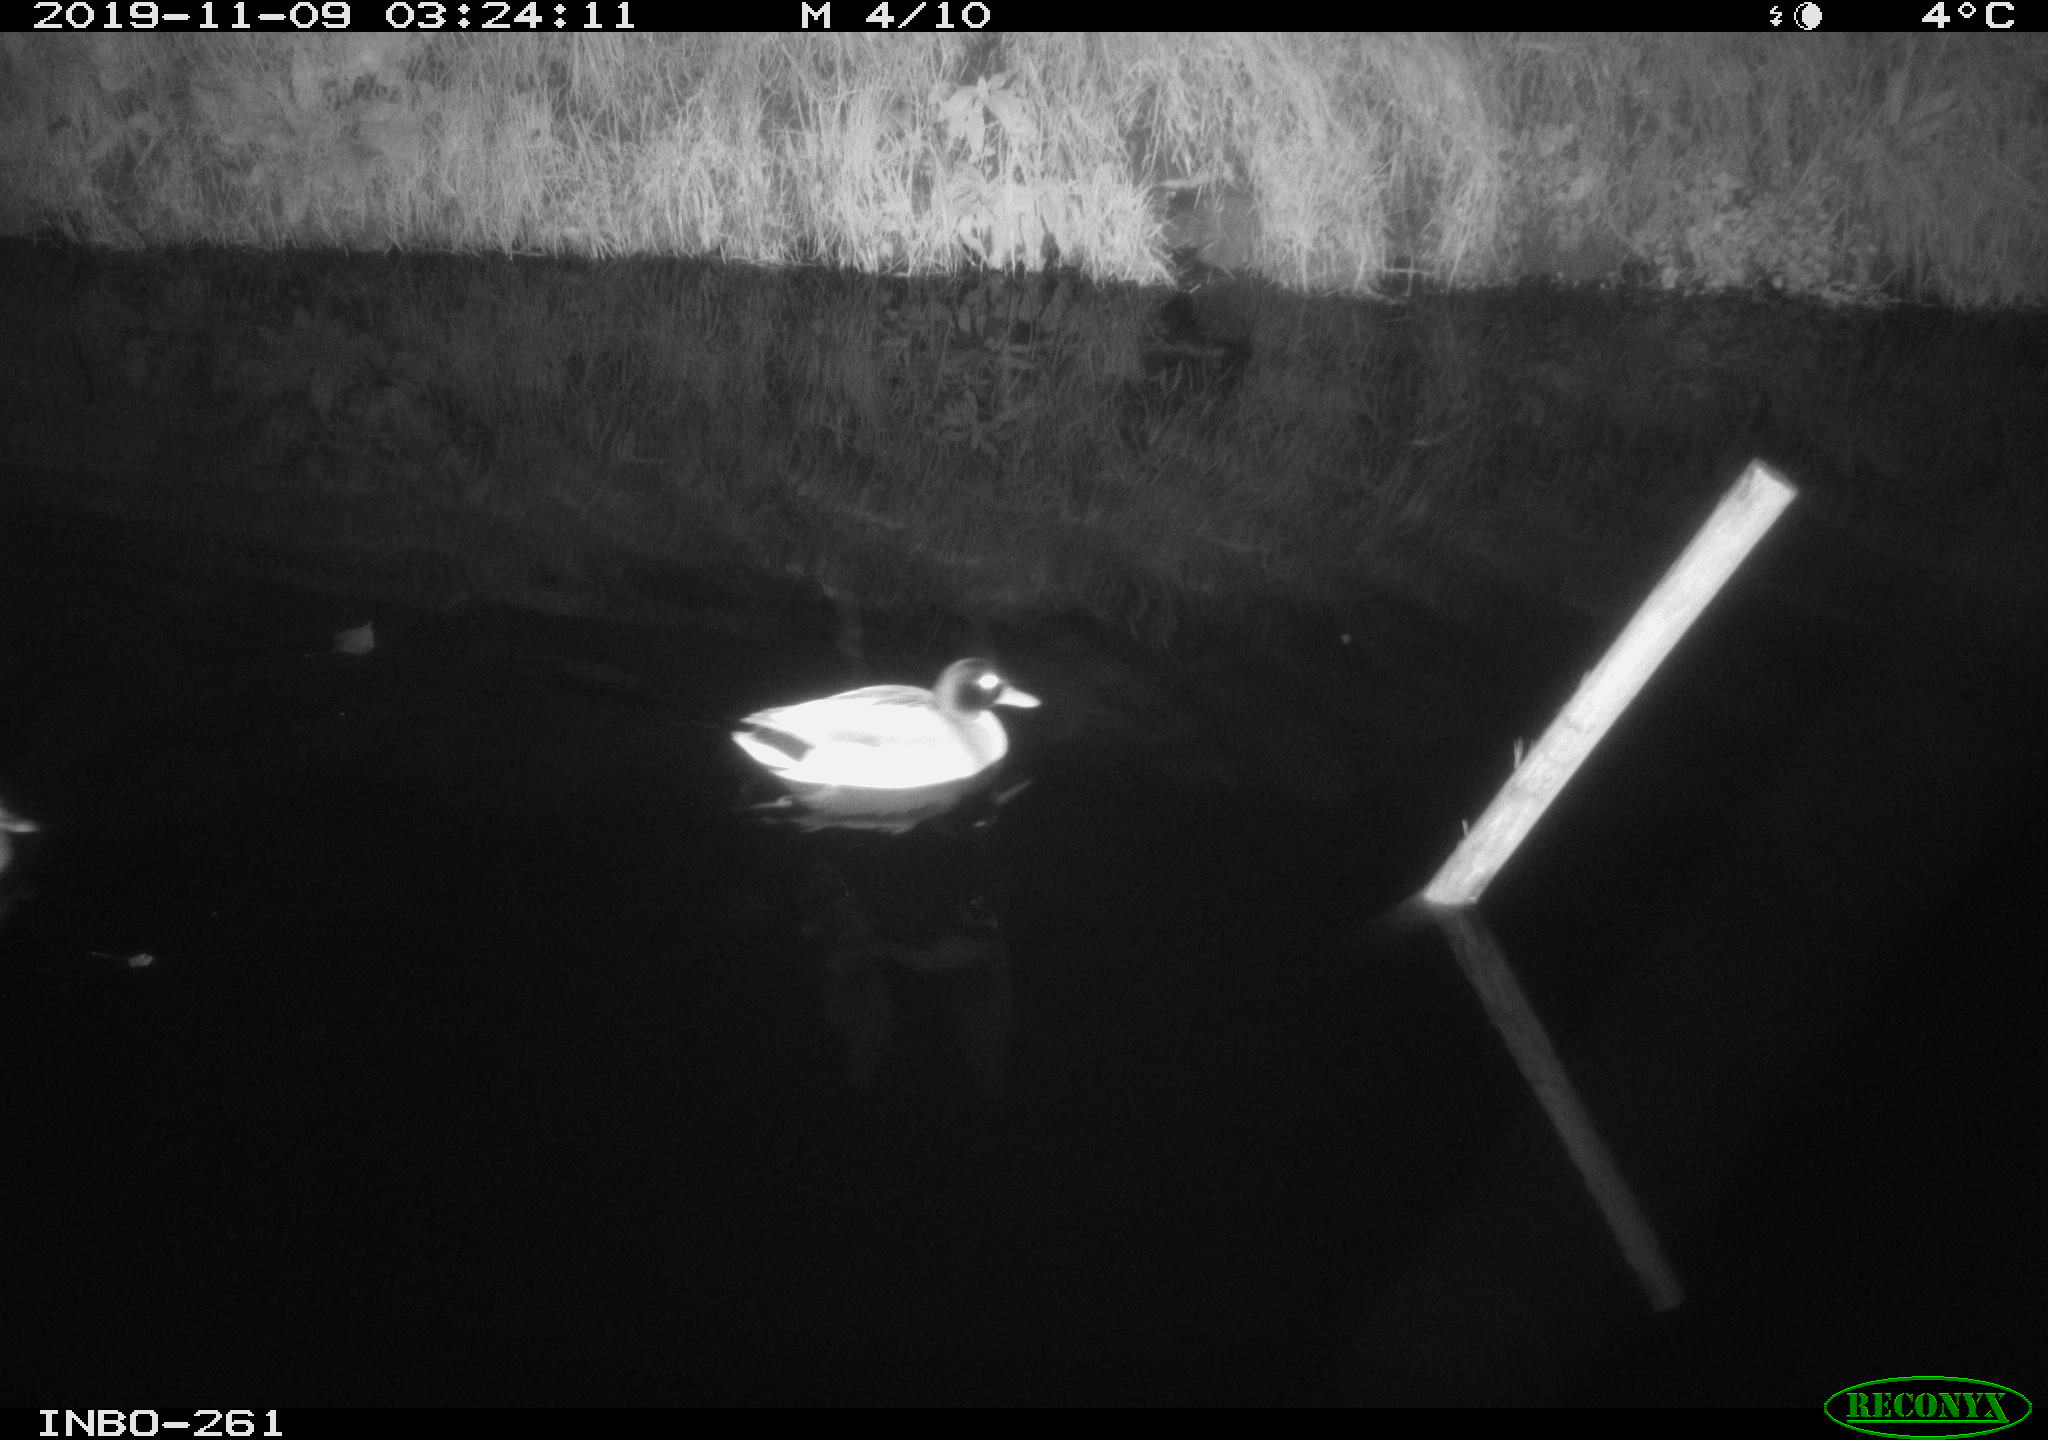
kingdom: Animalia
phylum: Chordata
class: Aves
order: Anseriformes
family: Anatidae
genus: Anas
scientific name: Anas platyrhynchos
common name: Mallard
